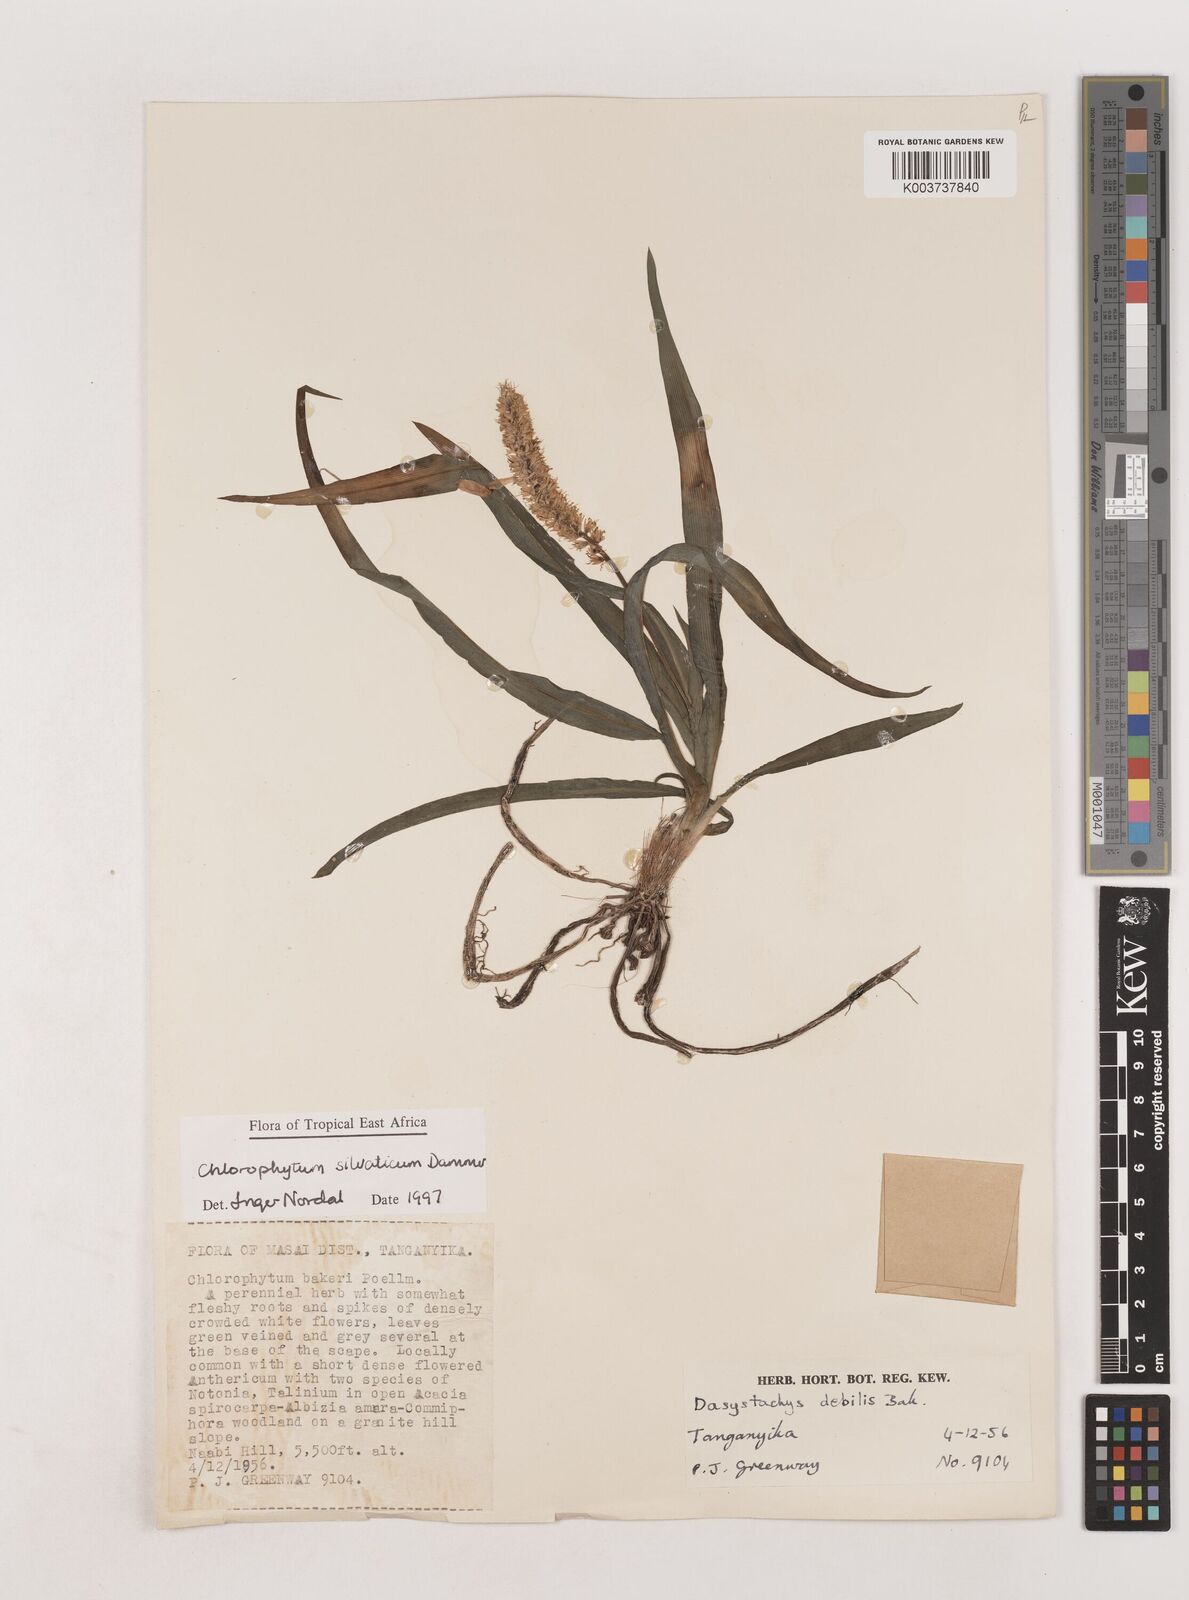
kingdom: Plantae
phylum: Tracheophyta
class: Liliopsida
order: Asparagales
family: Asparagaceae
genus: Chlorophytum
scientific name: Chlorophytum africanum
